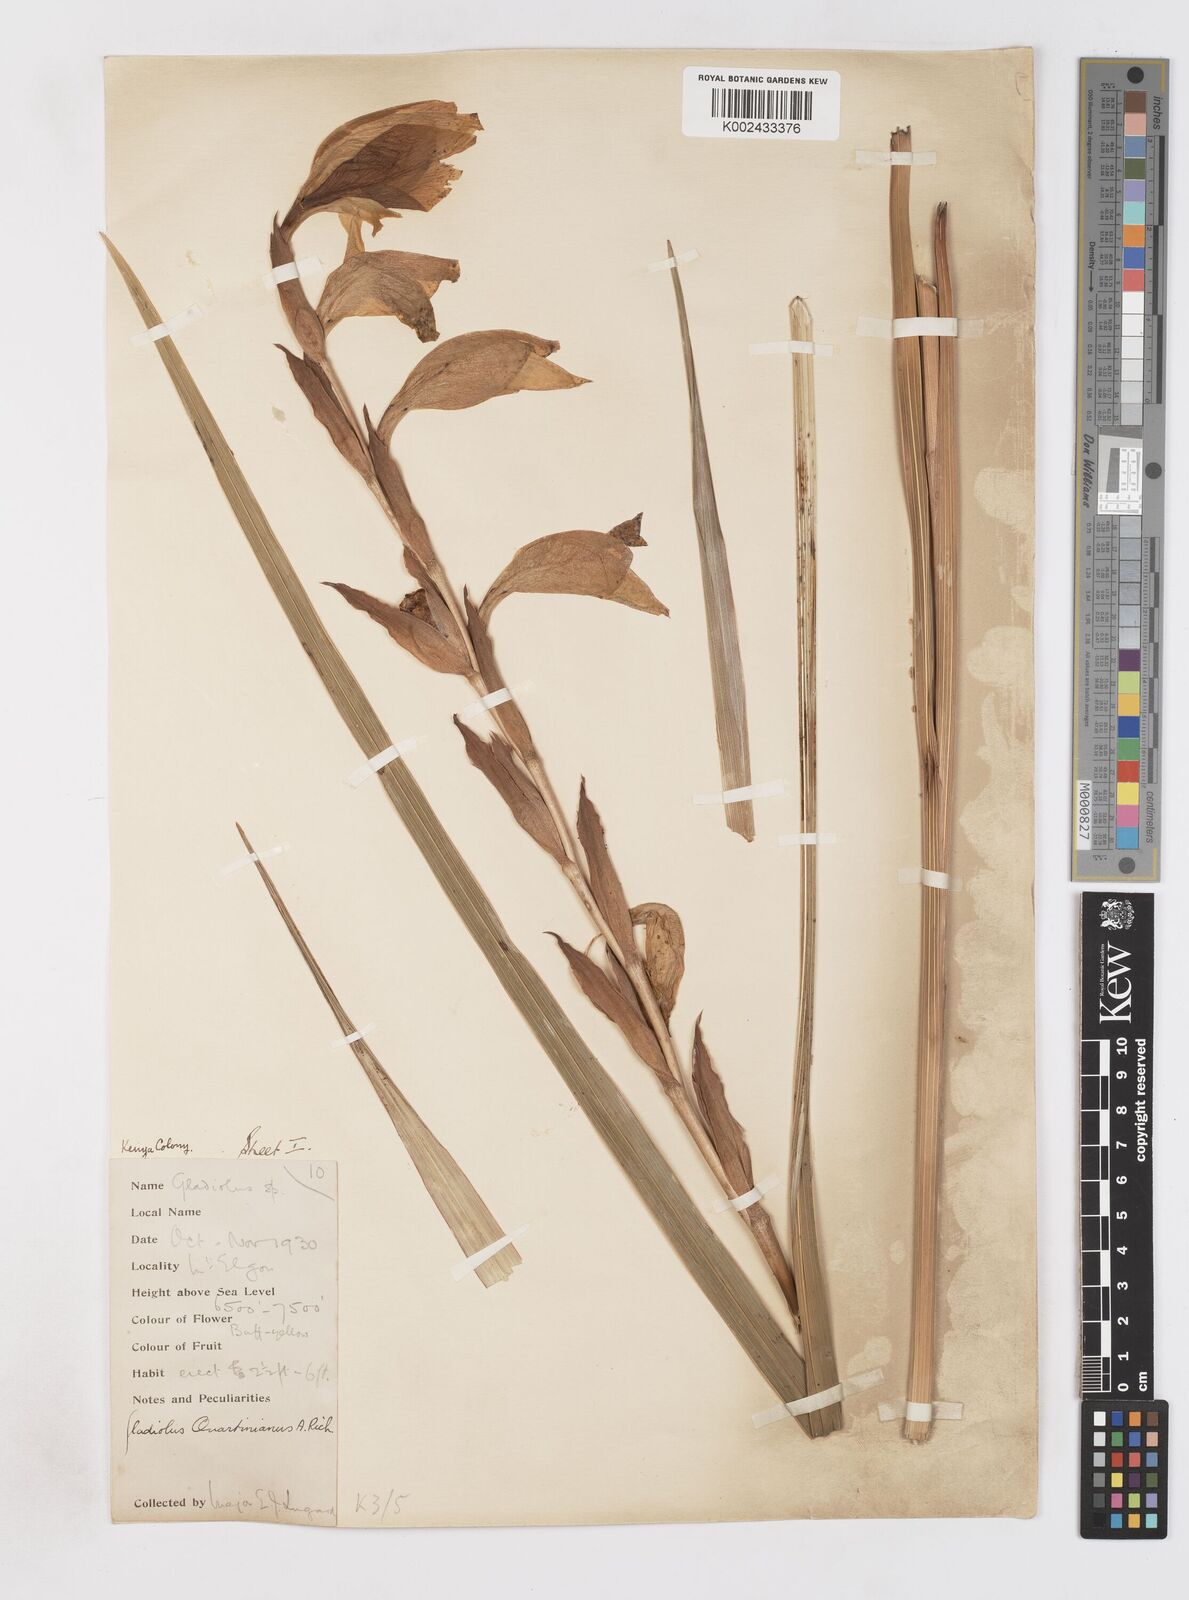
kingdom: Plantae
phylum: Tracheophyta
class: Liliopsida
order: Asparagales
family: Iridaceae
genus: Gladiolus
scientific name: Gladiolus dalenii
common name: Cornflag
